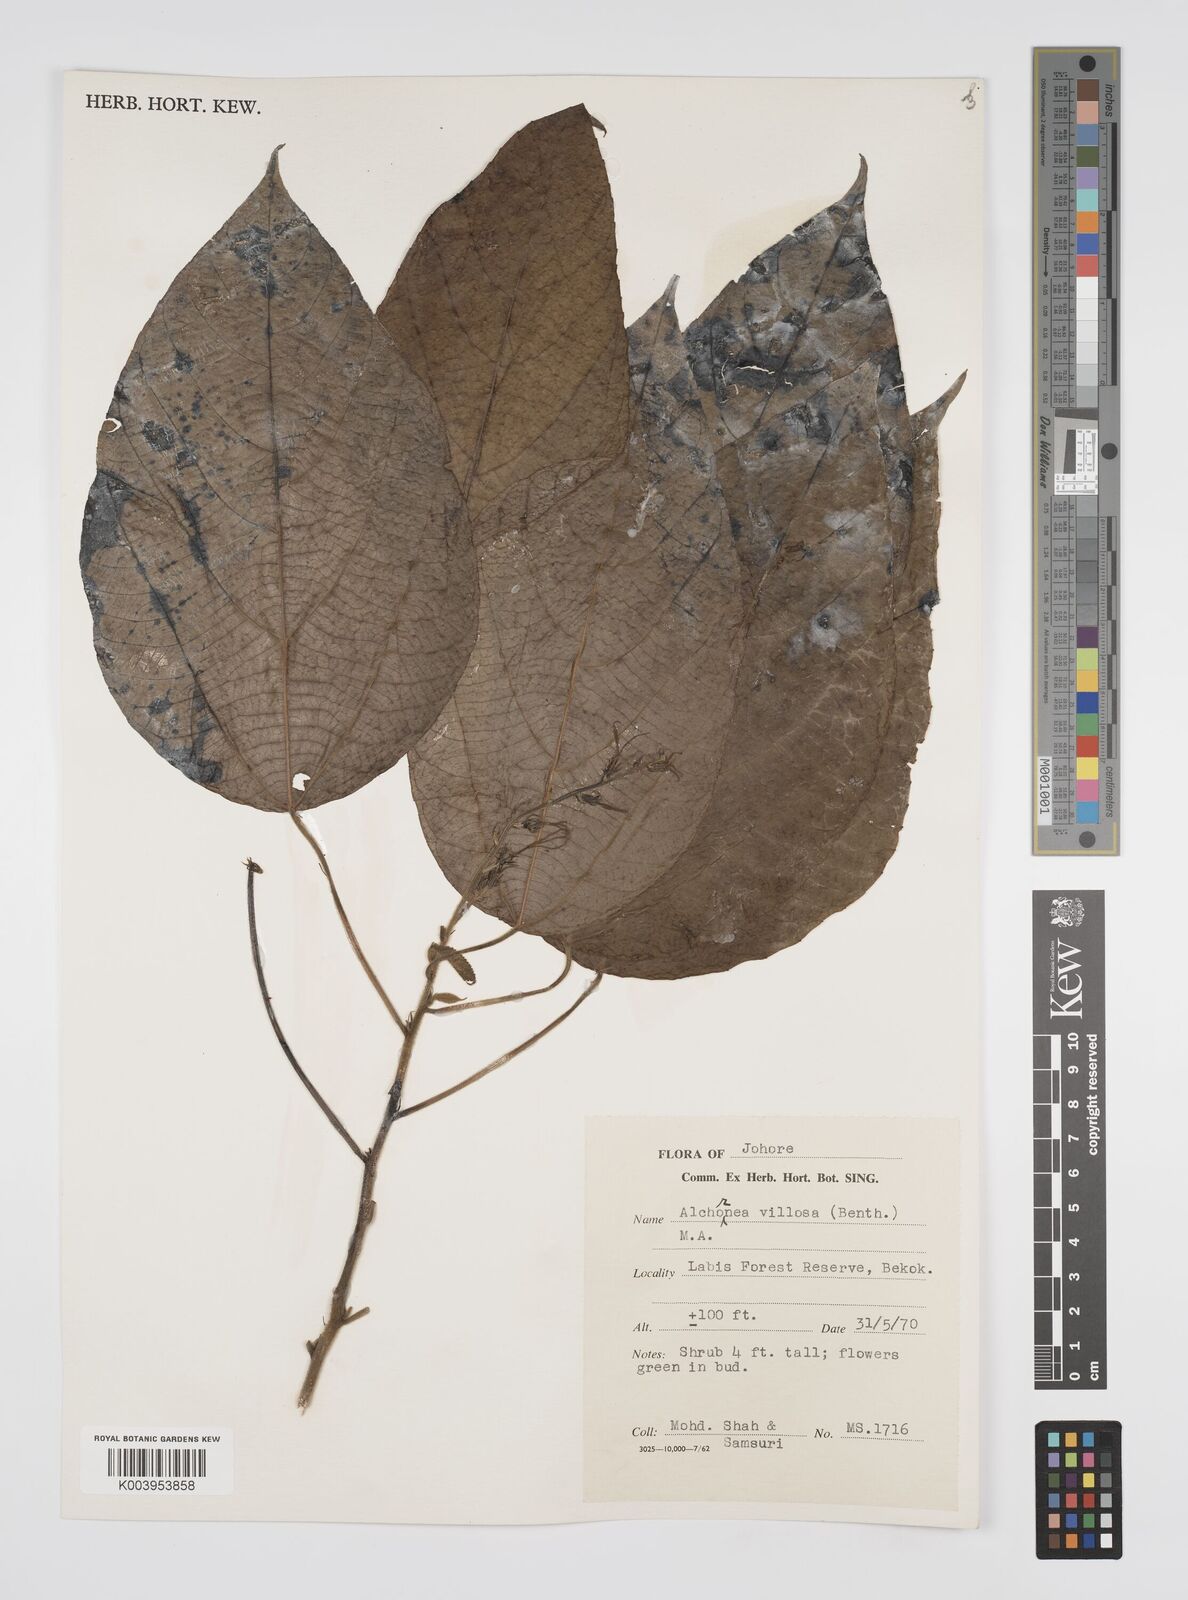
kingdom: Plantae
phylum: Tracheophyta
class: Magnoliopsida
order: Malpighiales
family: Euphorbiaceae
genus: Alchornea
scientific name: Alchornea tiliifolia
